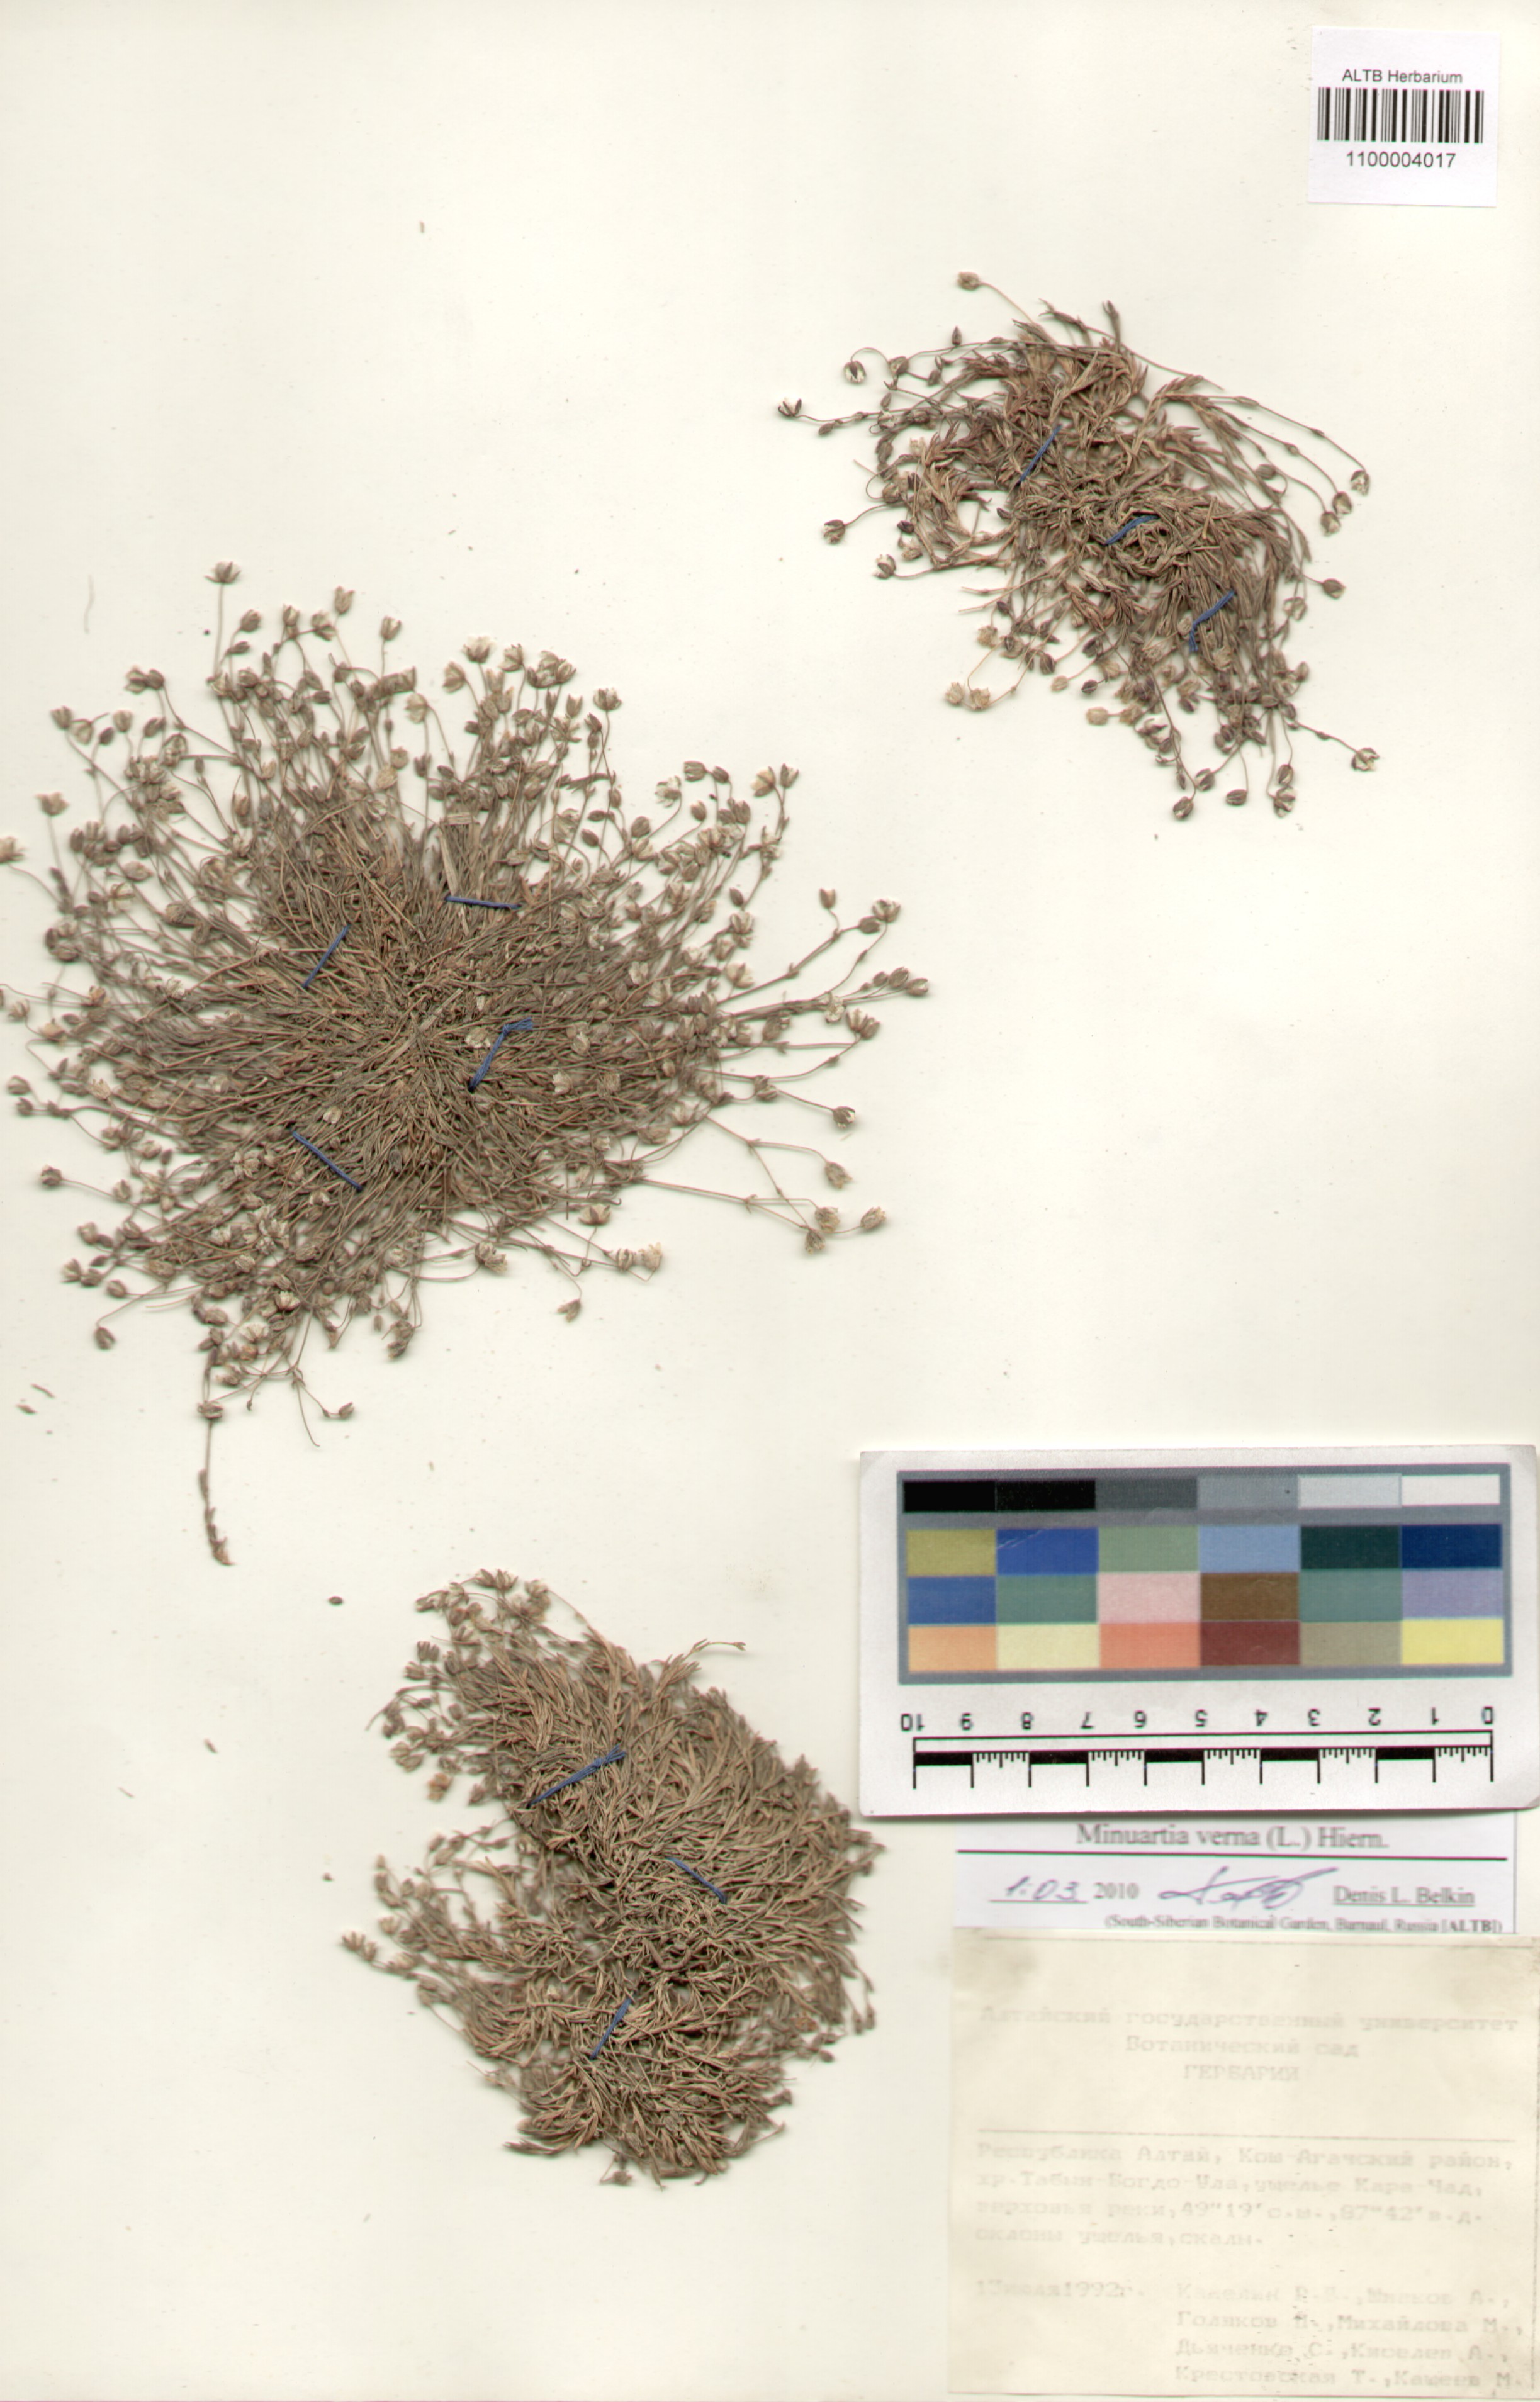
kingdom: Plantae
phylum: Tracheophyta
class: Magnoliopsida
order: Caryophyllales
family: Caryophyllaceae
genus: Sabulina
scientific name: Sabulina verna
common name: Spring sandwort
